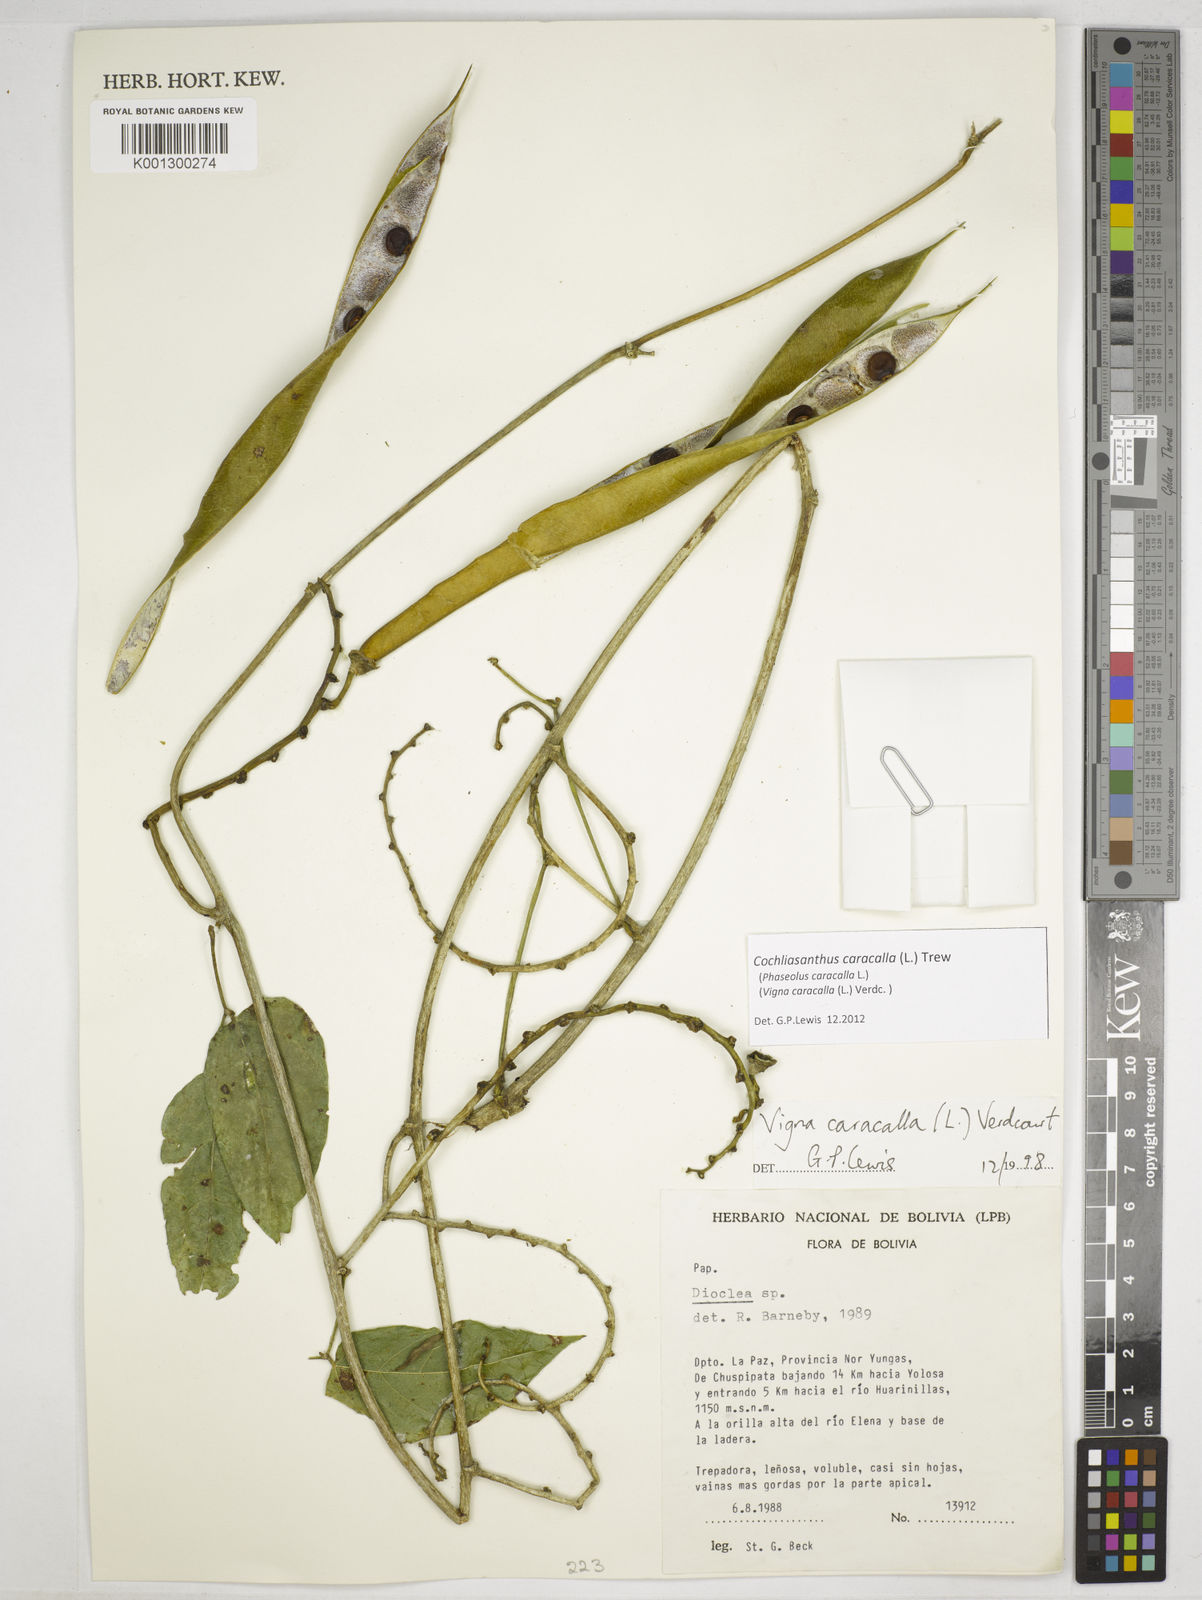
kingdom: Plantae
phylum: Tracheophyta
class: Magnoliopsida
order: Fabales
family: Fabaceae
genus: Cochliasanthus
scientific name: Cochliasanthus caracalla
